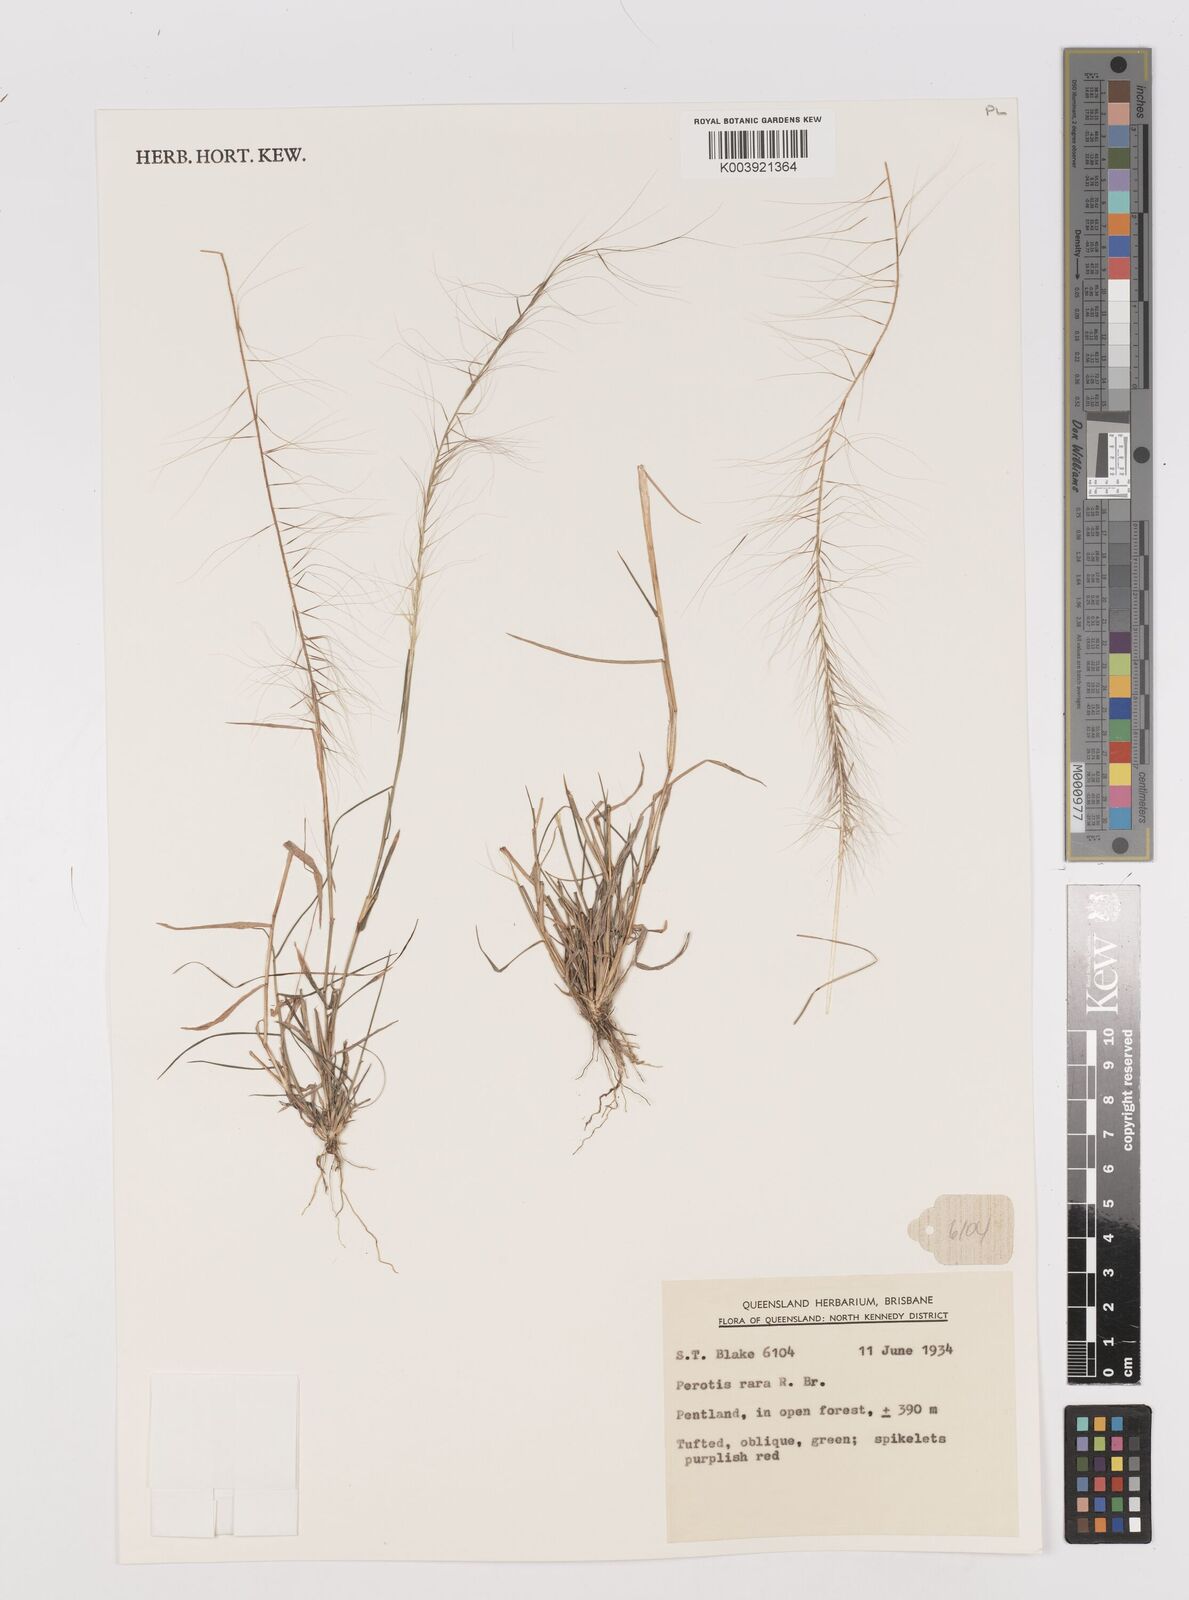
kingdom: Plantae
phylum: Tracheophyta
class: Liliopsida
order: Poales
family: Poaceae
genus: Perotis
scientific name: Perotis rara
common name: Comet grass
